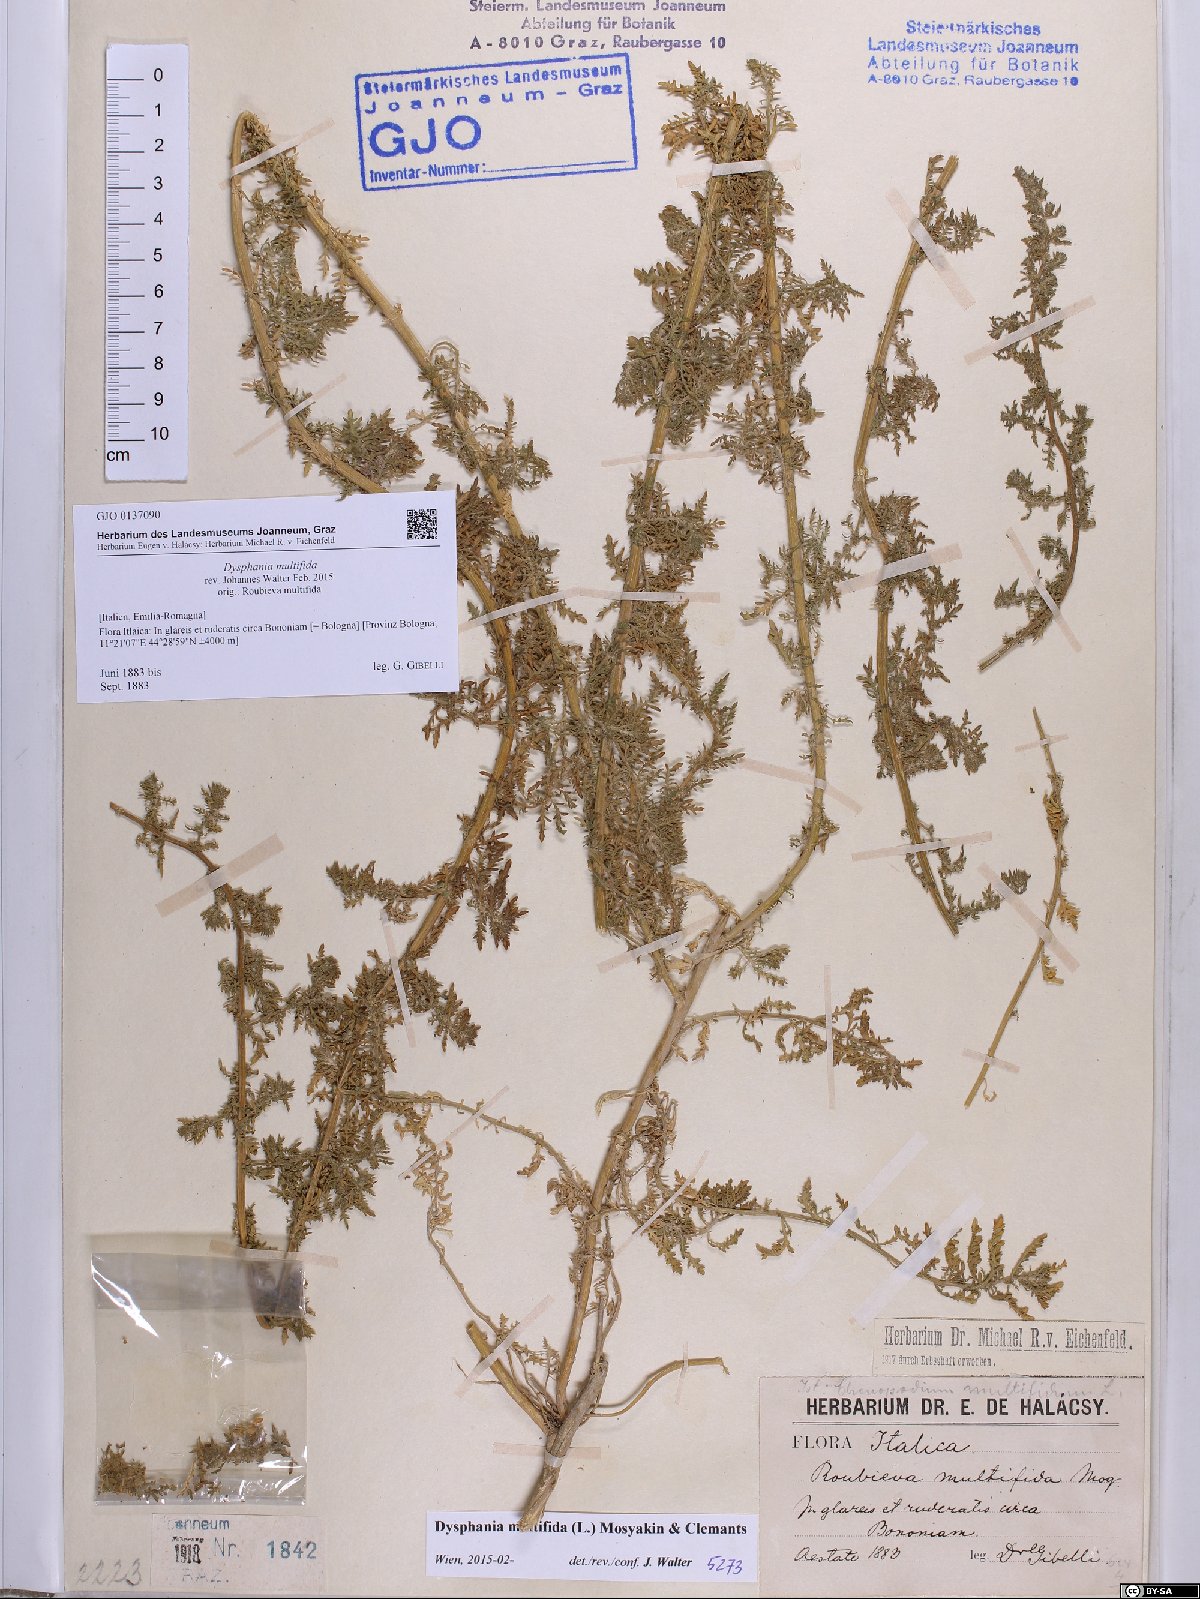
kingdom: Plantae
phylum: Tracheophyta
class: Magnoliopsida
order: Caryophyllales
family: Amaranthaceae
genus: Dysphania
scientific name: Dysphania multifida
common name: Cutleaf goosefoot
